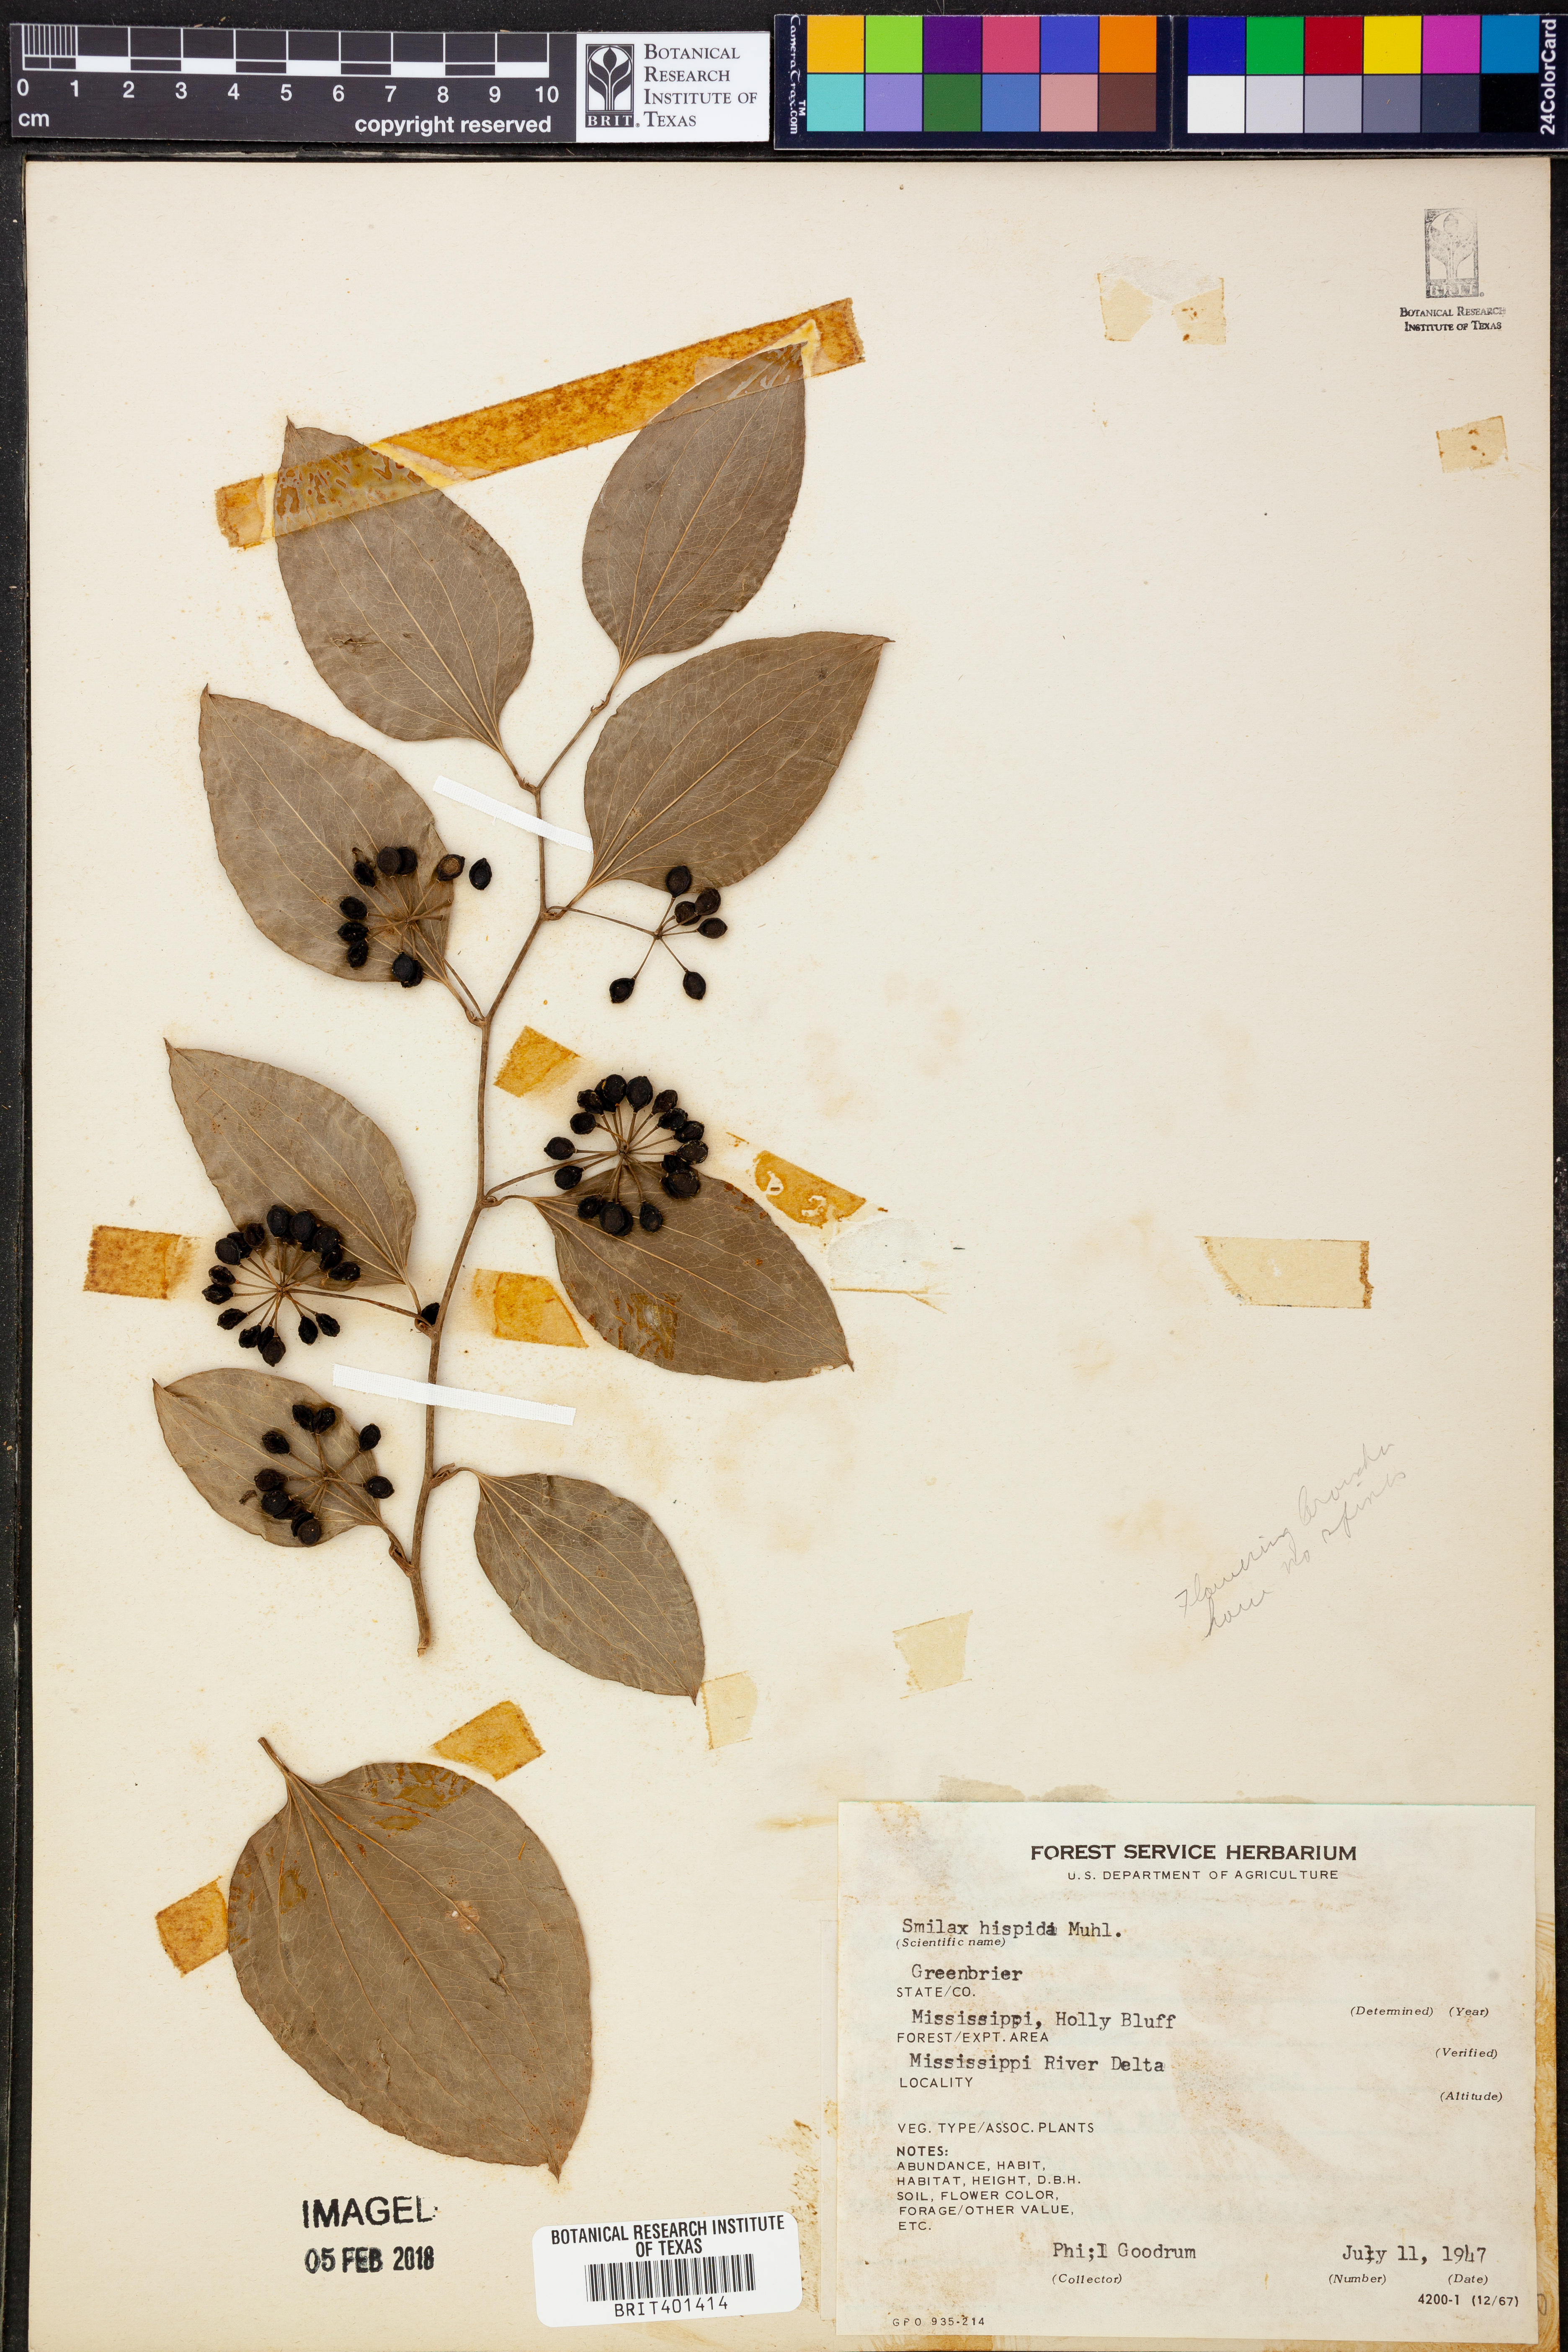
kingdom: Plantae
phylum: Tracheophyta
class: Liliopsida
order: Liliales
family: Smilacaceae
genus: Smilax
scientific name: Smilax tamnoides
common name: Hellfetter
